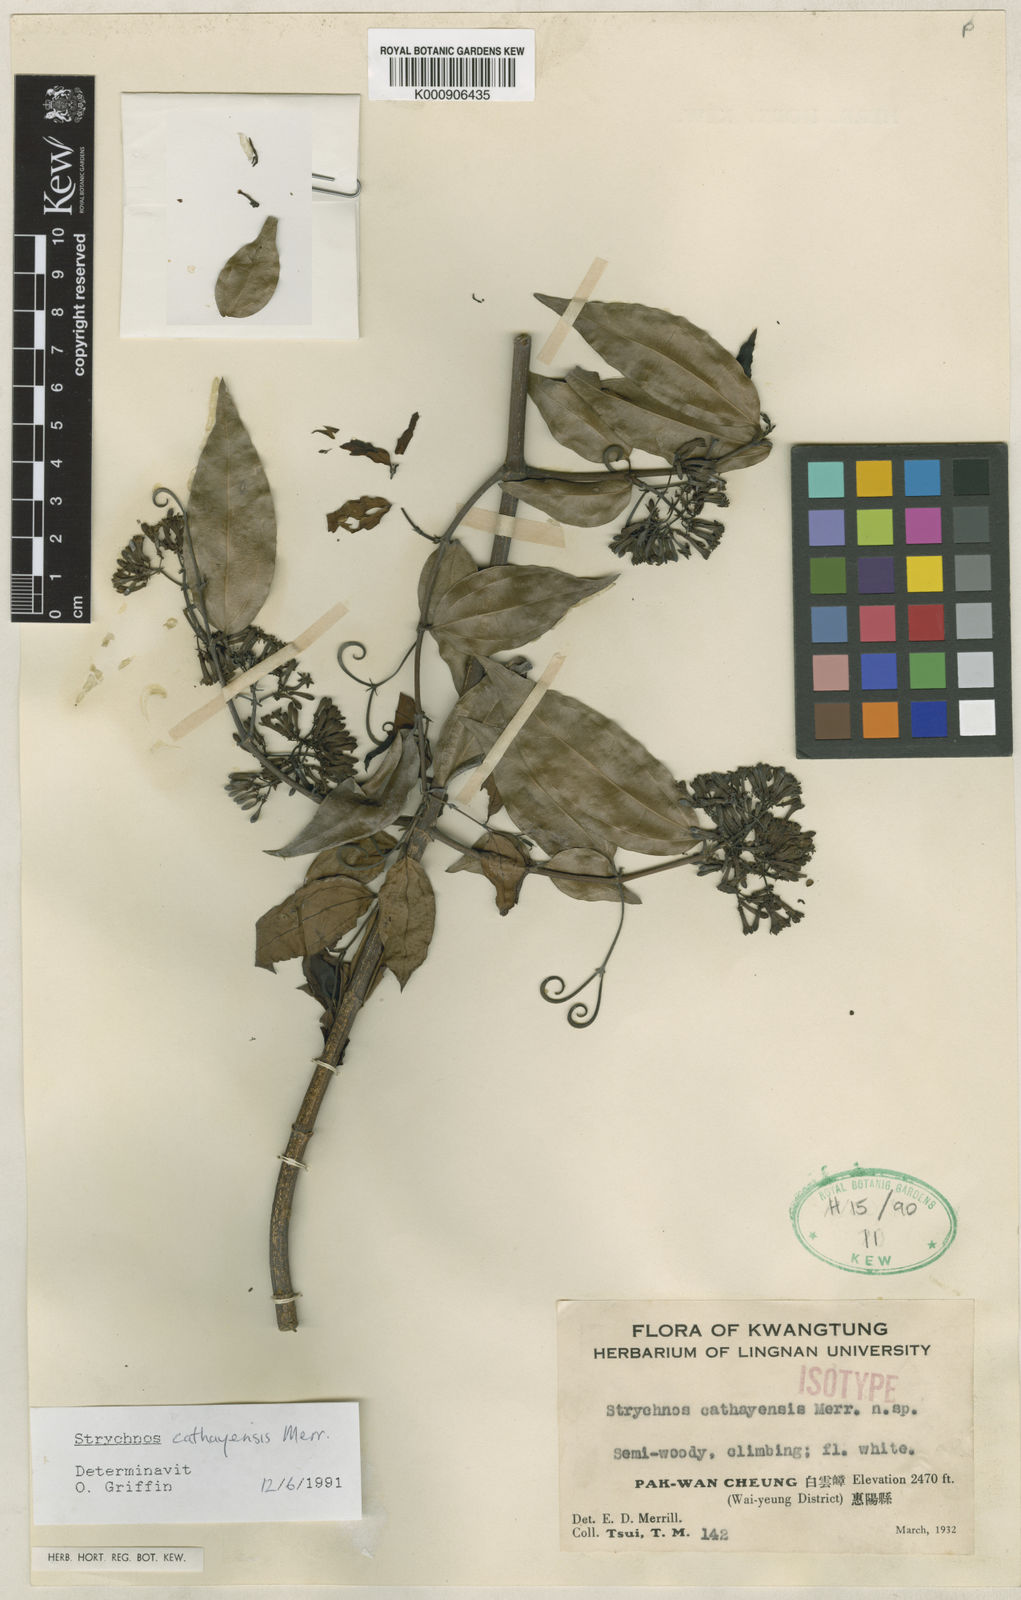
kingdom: Plantae
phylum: Tracheophyta
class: Magnoliopsida
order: Gentianales
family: Loganiaceae
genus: Strychnos
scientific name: Strychnos cathayensis
